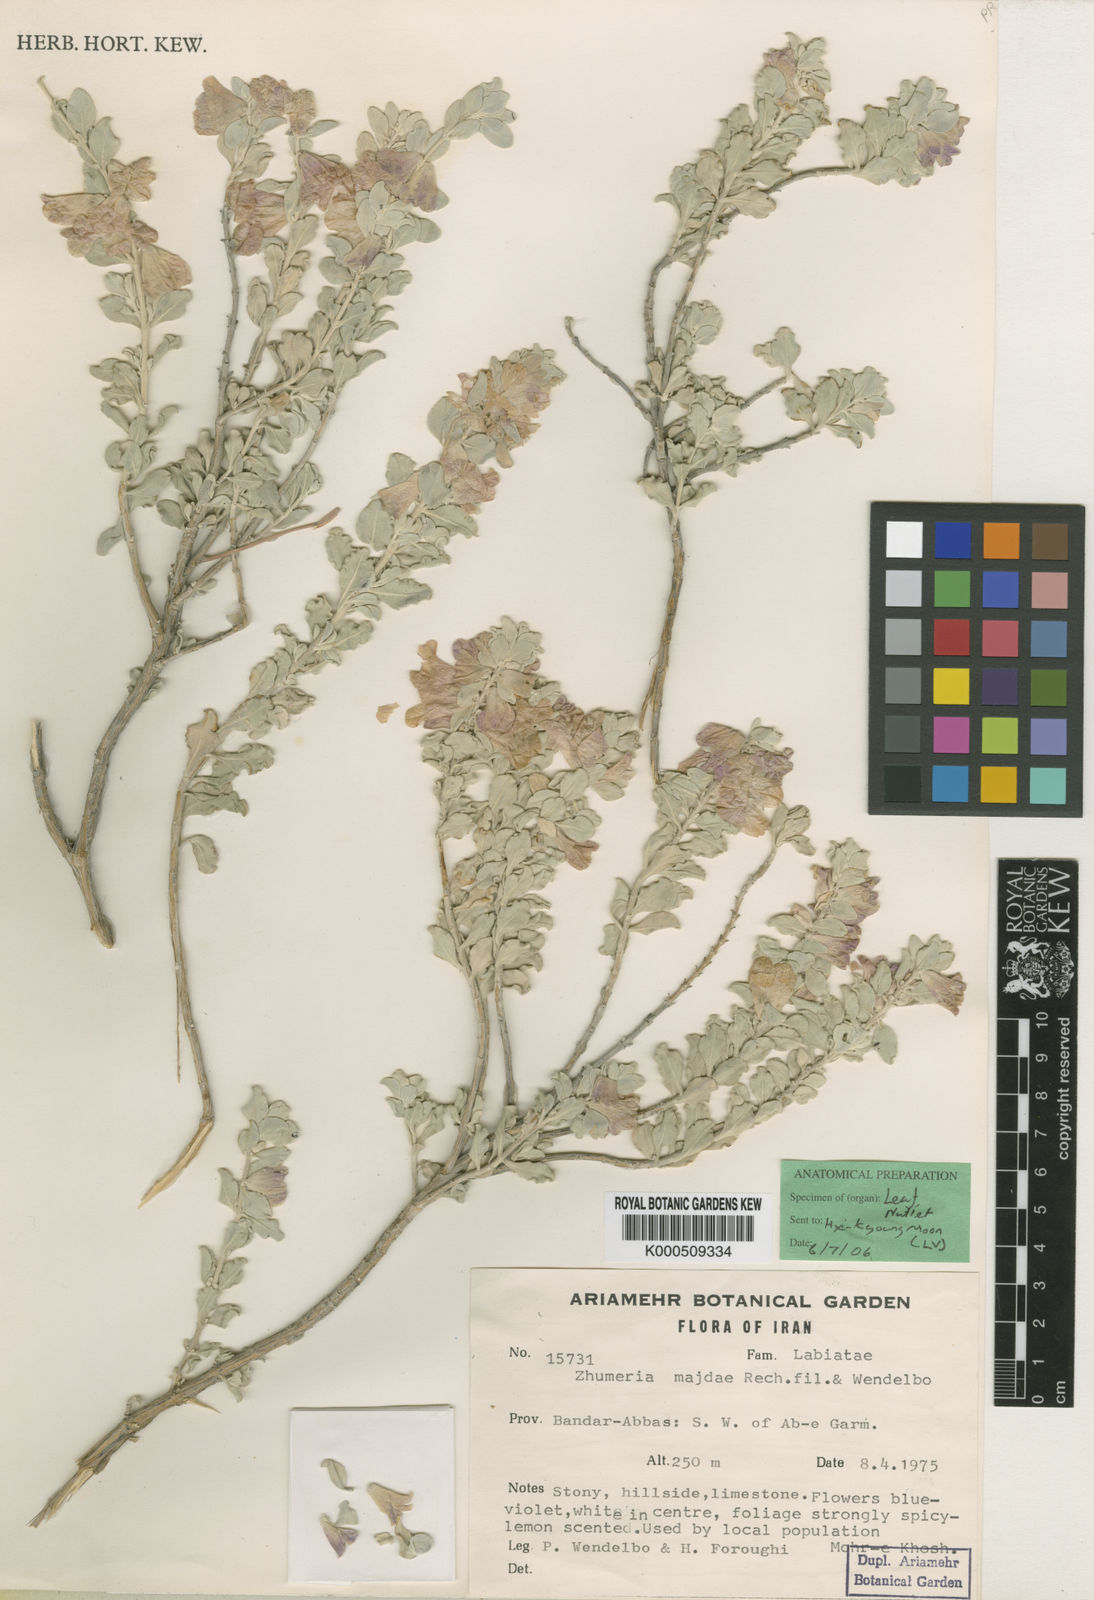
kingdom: Plantae
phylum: Tracheophyta
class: Magnoliopsida
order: Lamiales
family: Lamiaceae
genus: Salvia
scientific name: Salvia majdae
